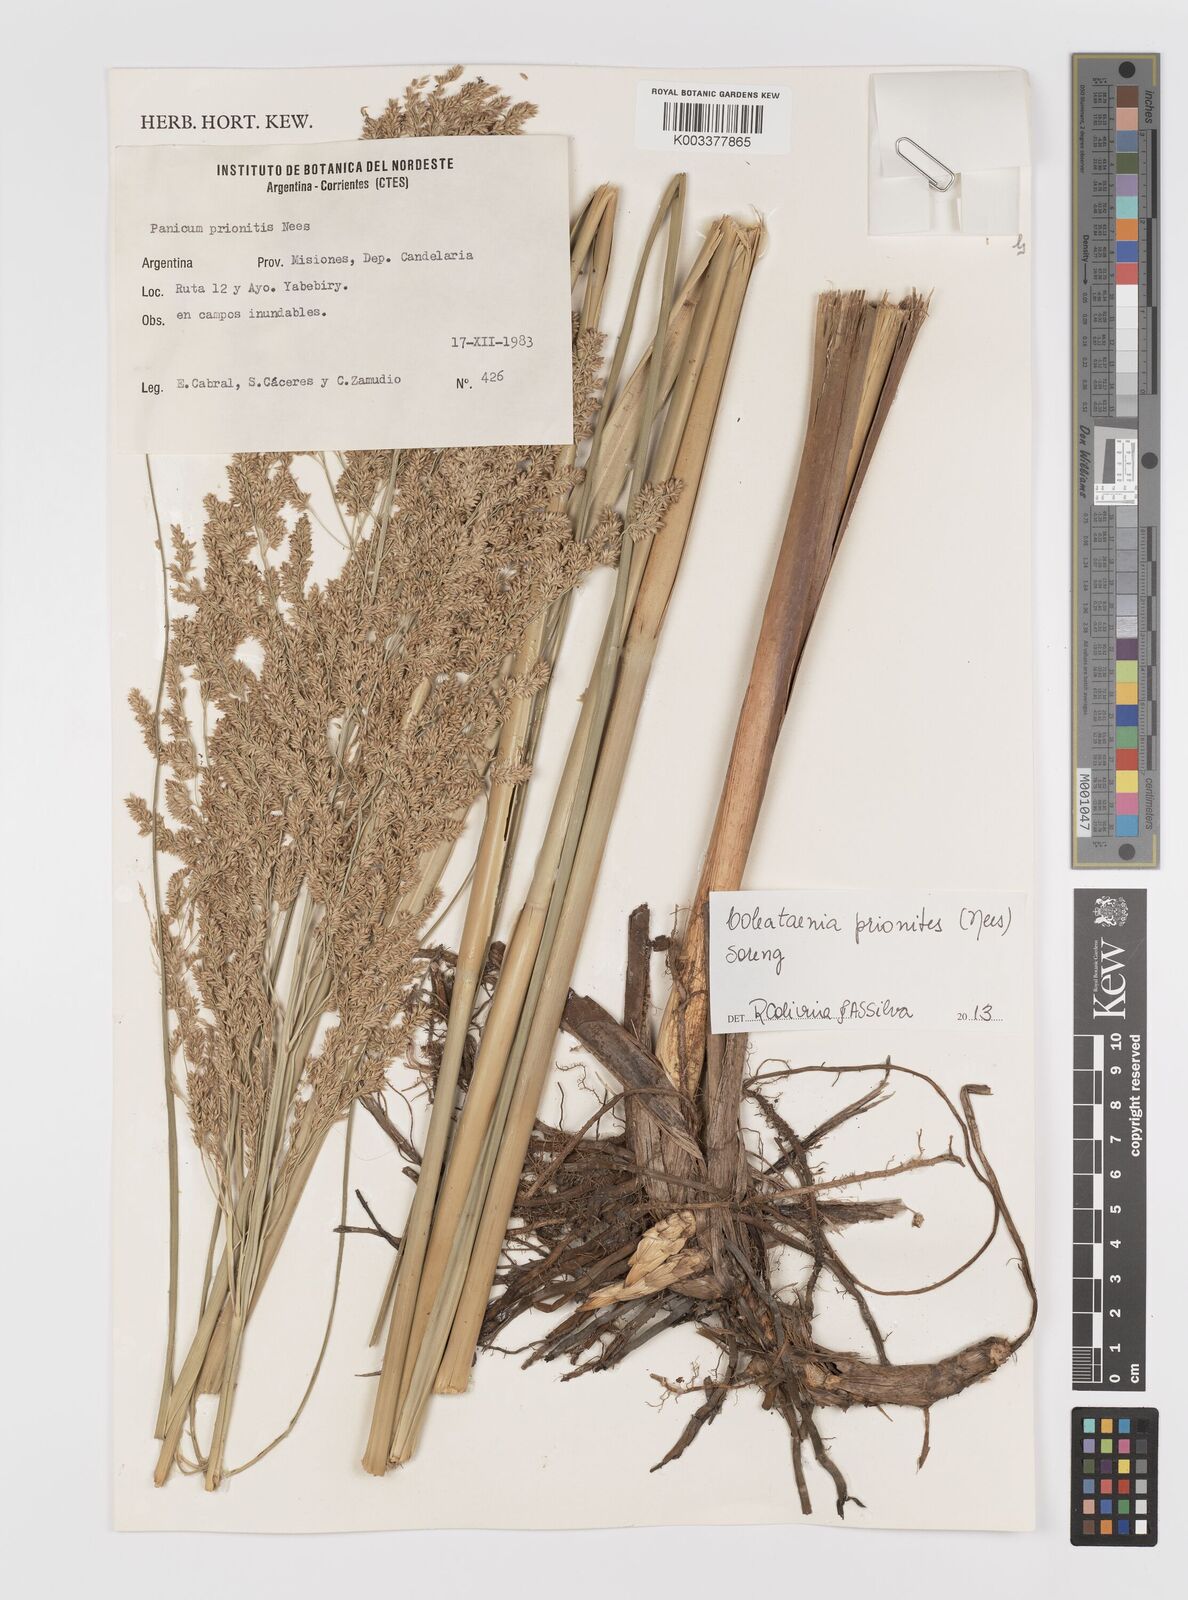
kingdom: Plantae
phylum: Tracheophyta
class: Liliopsida
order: Poales
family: Poaceae
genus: Coleataenia
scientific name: Coleataenia prionitis
